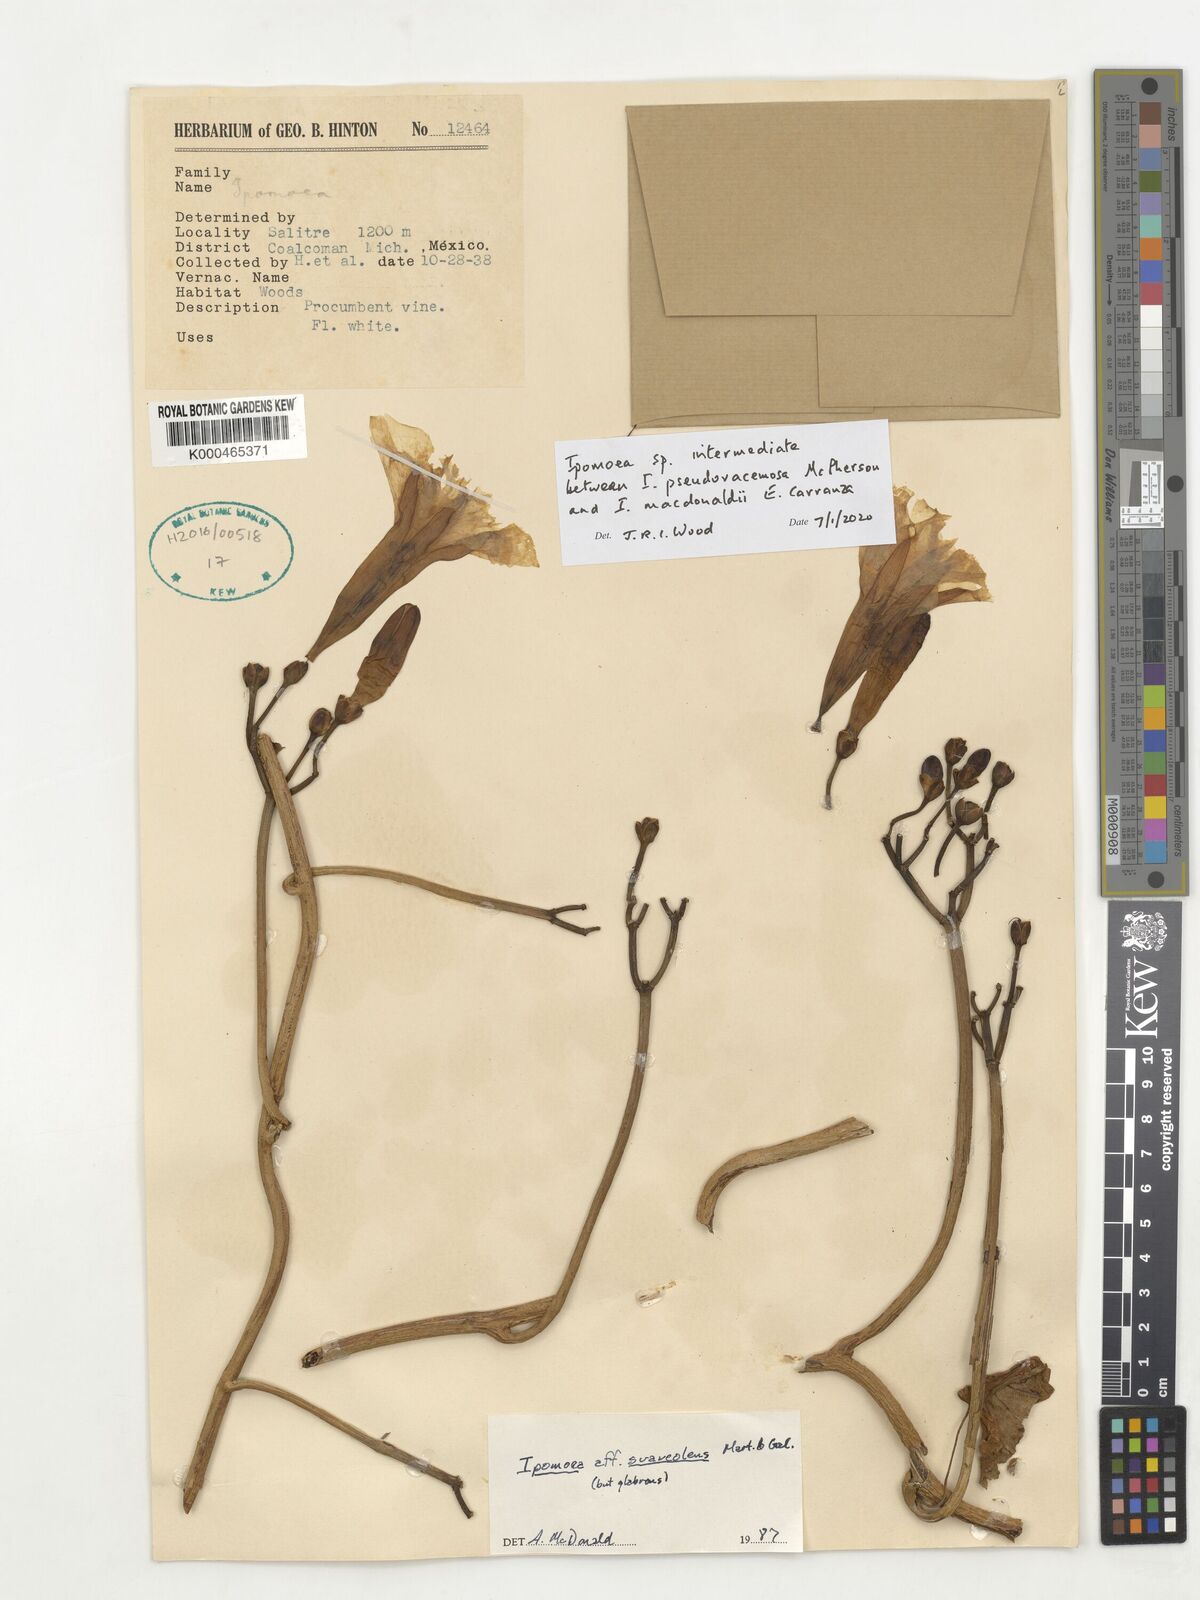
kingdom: Plantae
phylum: Tracheophyta
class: Magnoliopsida
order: Solanales
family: Convolvulaceae
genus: Ipomoea
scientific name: Ipomoea
